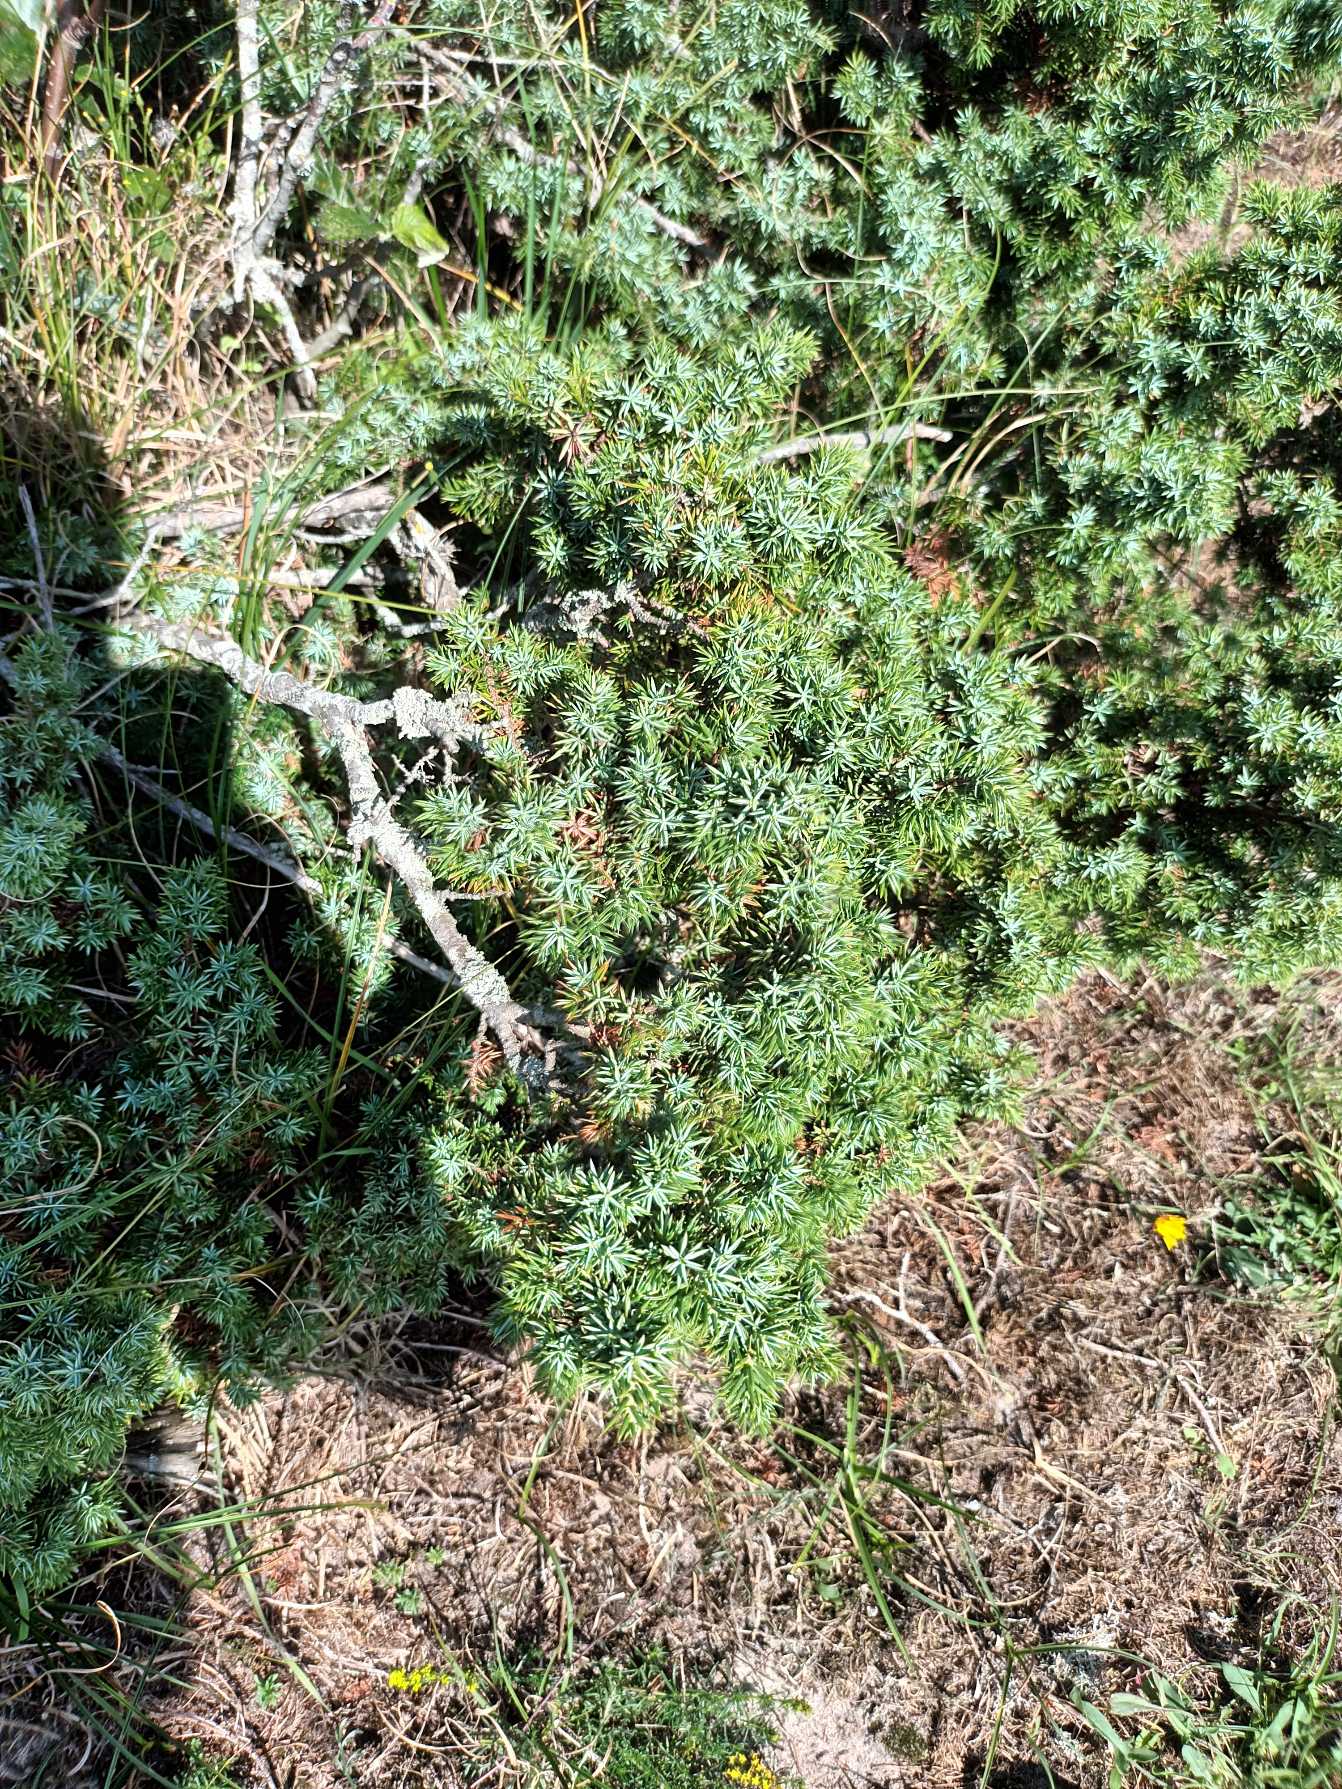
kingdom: Plantae
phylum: Tracheophyta
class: Pinopsida
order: Pinales
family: Cupressaceae
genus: Juniperus
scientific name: Juniperus communis
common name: Almindelig ene
